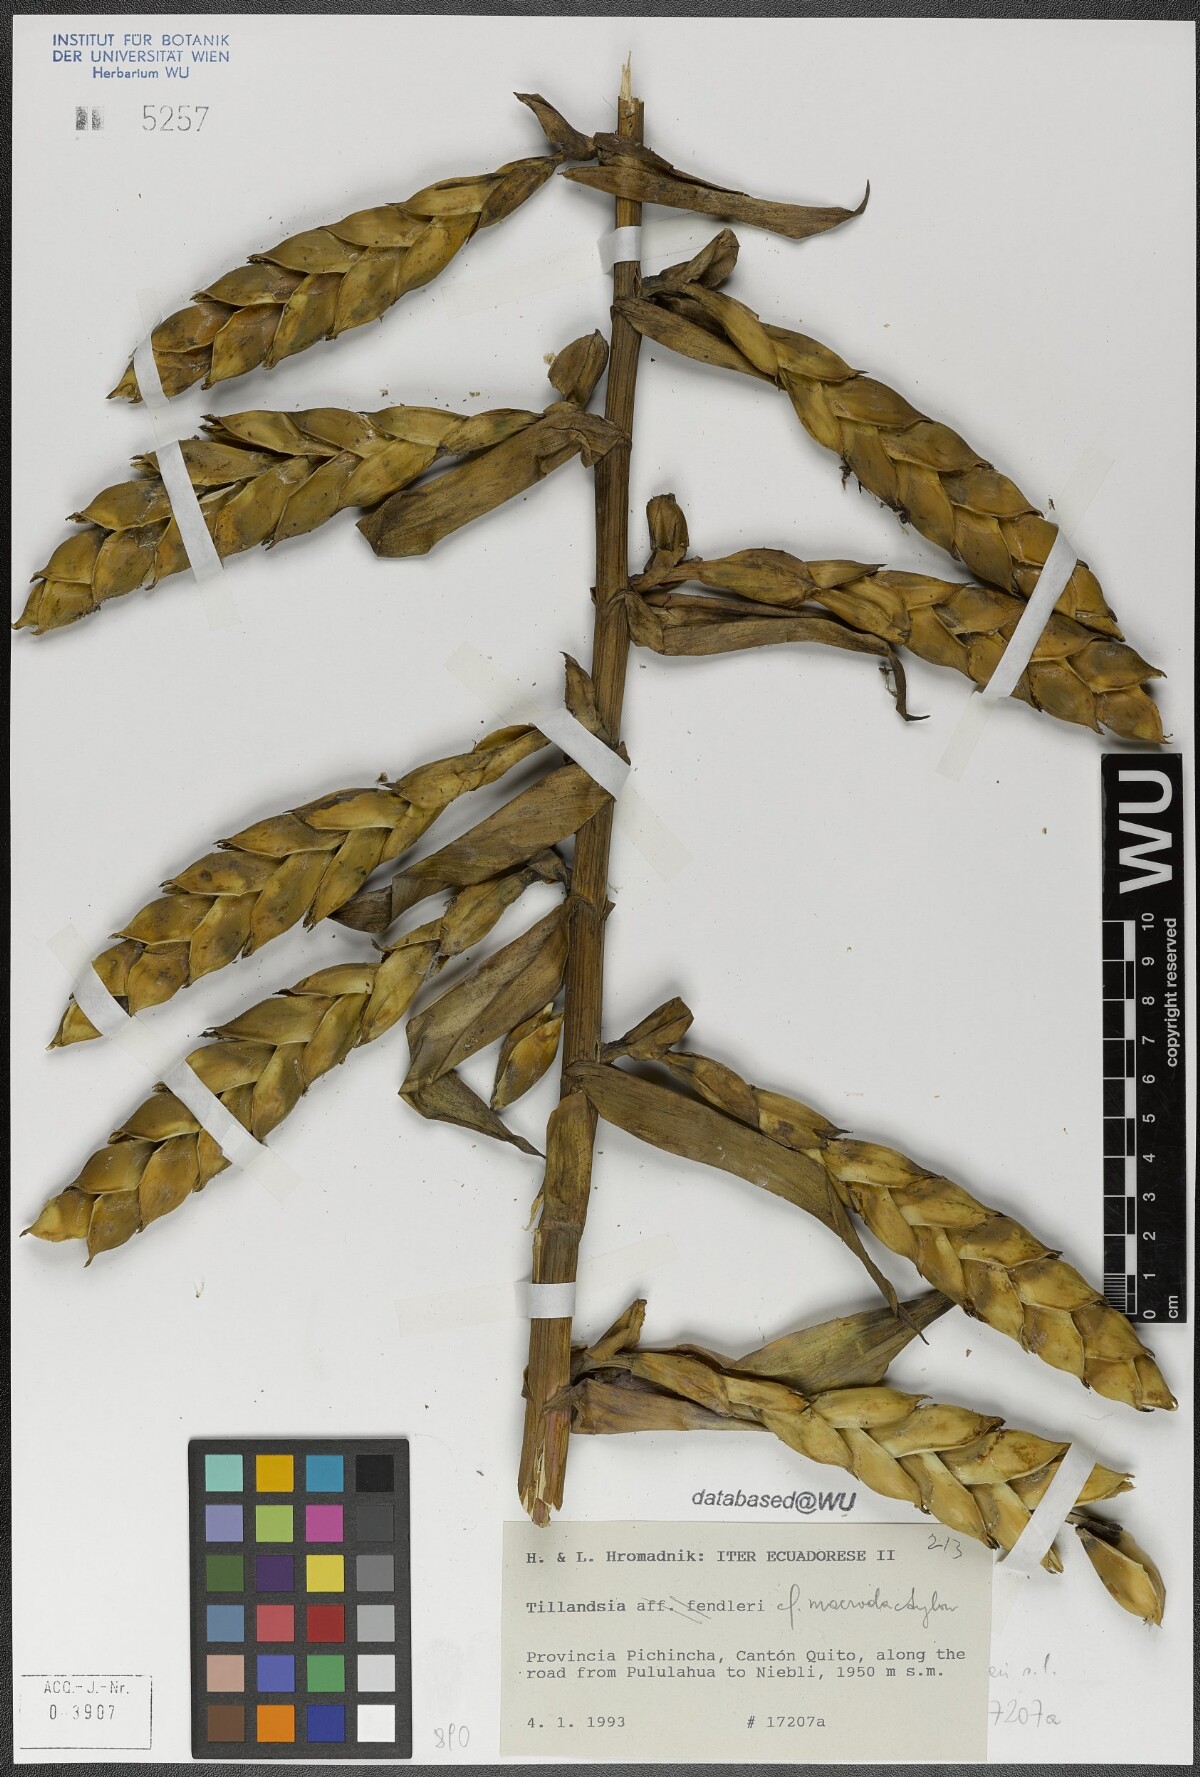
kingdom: Plantae
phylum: Tracheophyta
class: Liliopsida
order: Poales
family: Bromeliaceae
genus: Tillandsia
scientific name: Tillandsia macrodactylon
